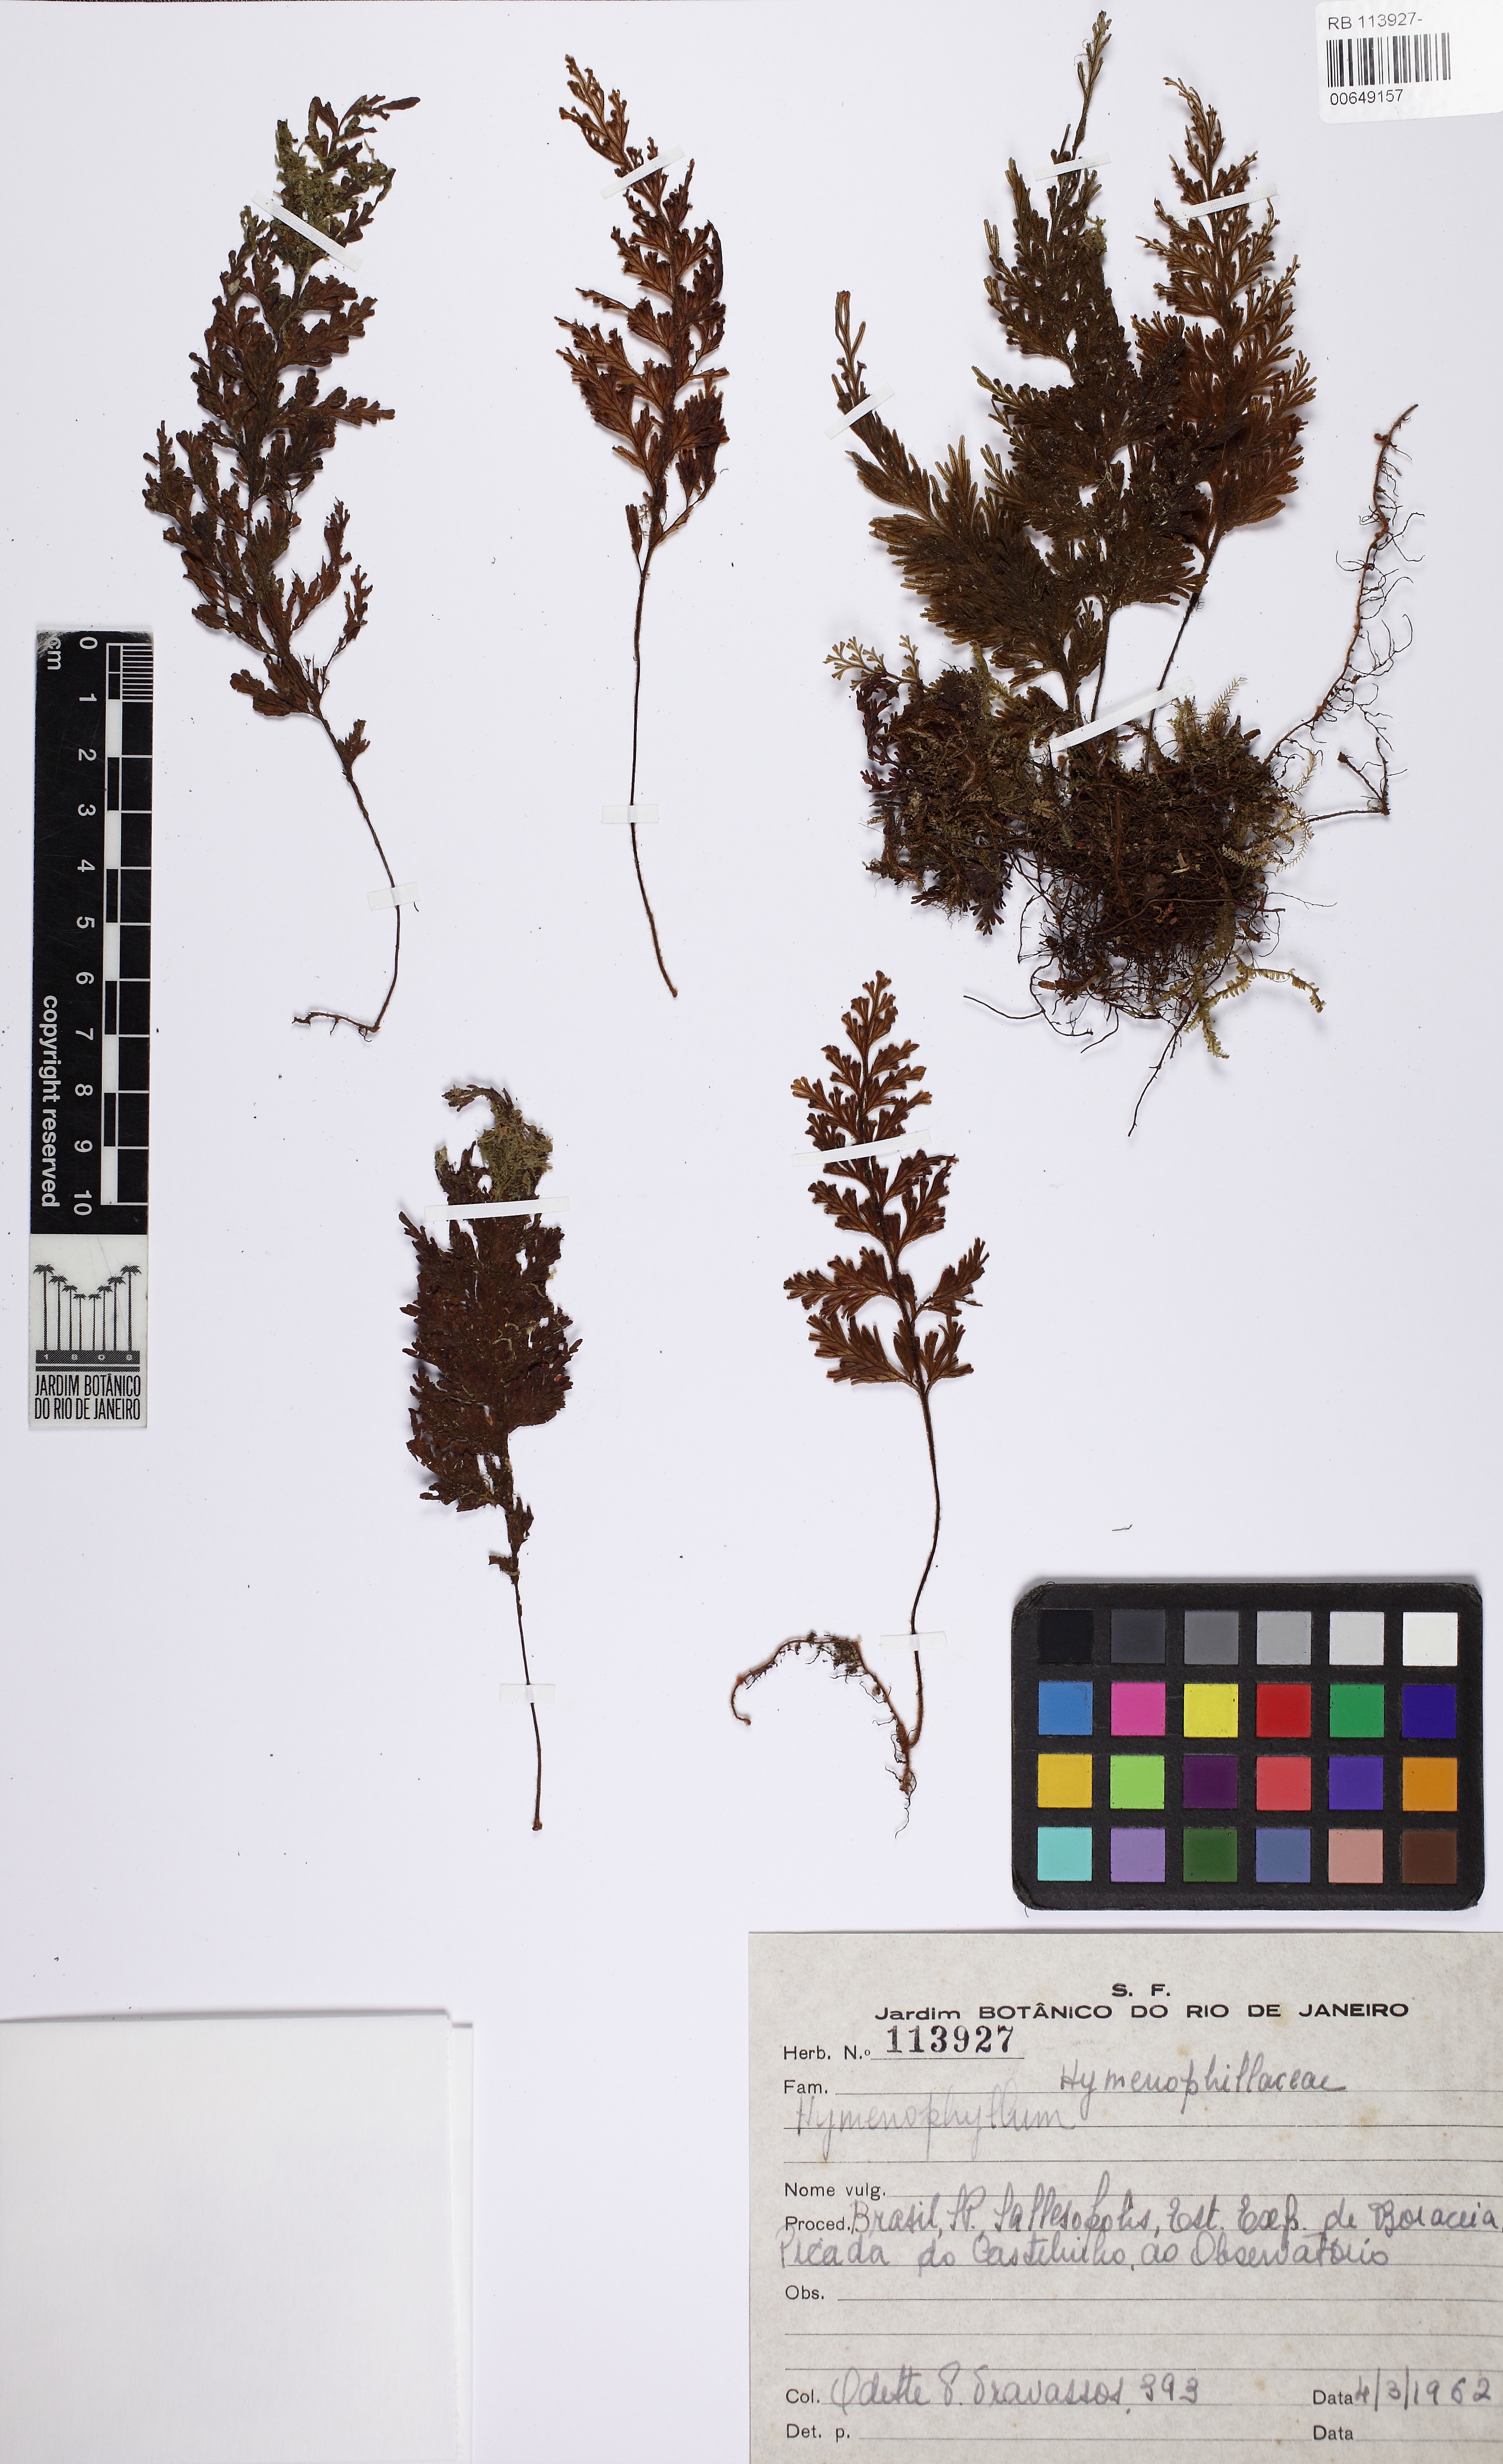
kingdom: Plantae
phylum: Tracheophyta
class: Polypodiopsida
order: Hymenophyllales
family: Hymenophyllaceae
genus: Hymenophyllum
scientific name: Hymenophyllum hirsutum
